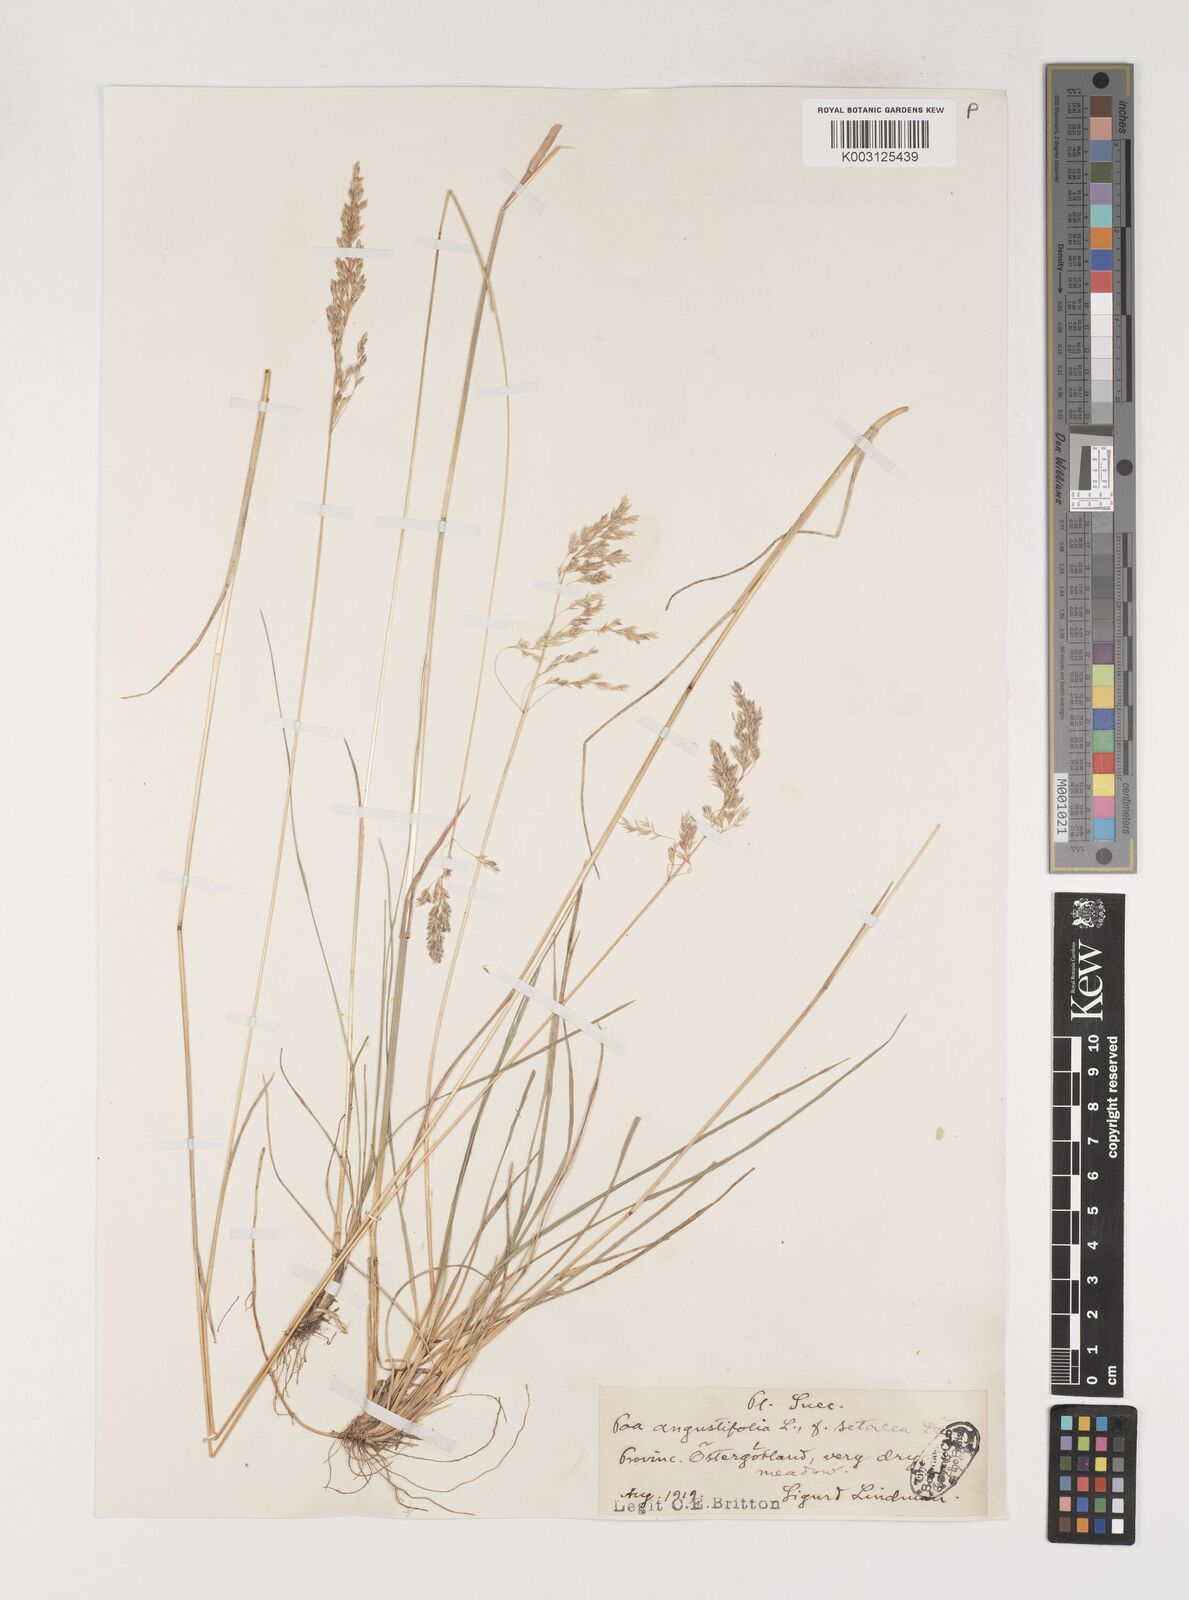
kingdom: Plantae
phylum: Tracheophyta
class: Liliopsida
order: Poales
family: Poaceae
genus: Poa
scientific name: Poa angustifolia
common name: Narrow-leaved meadow-grass
